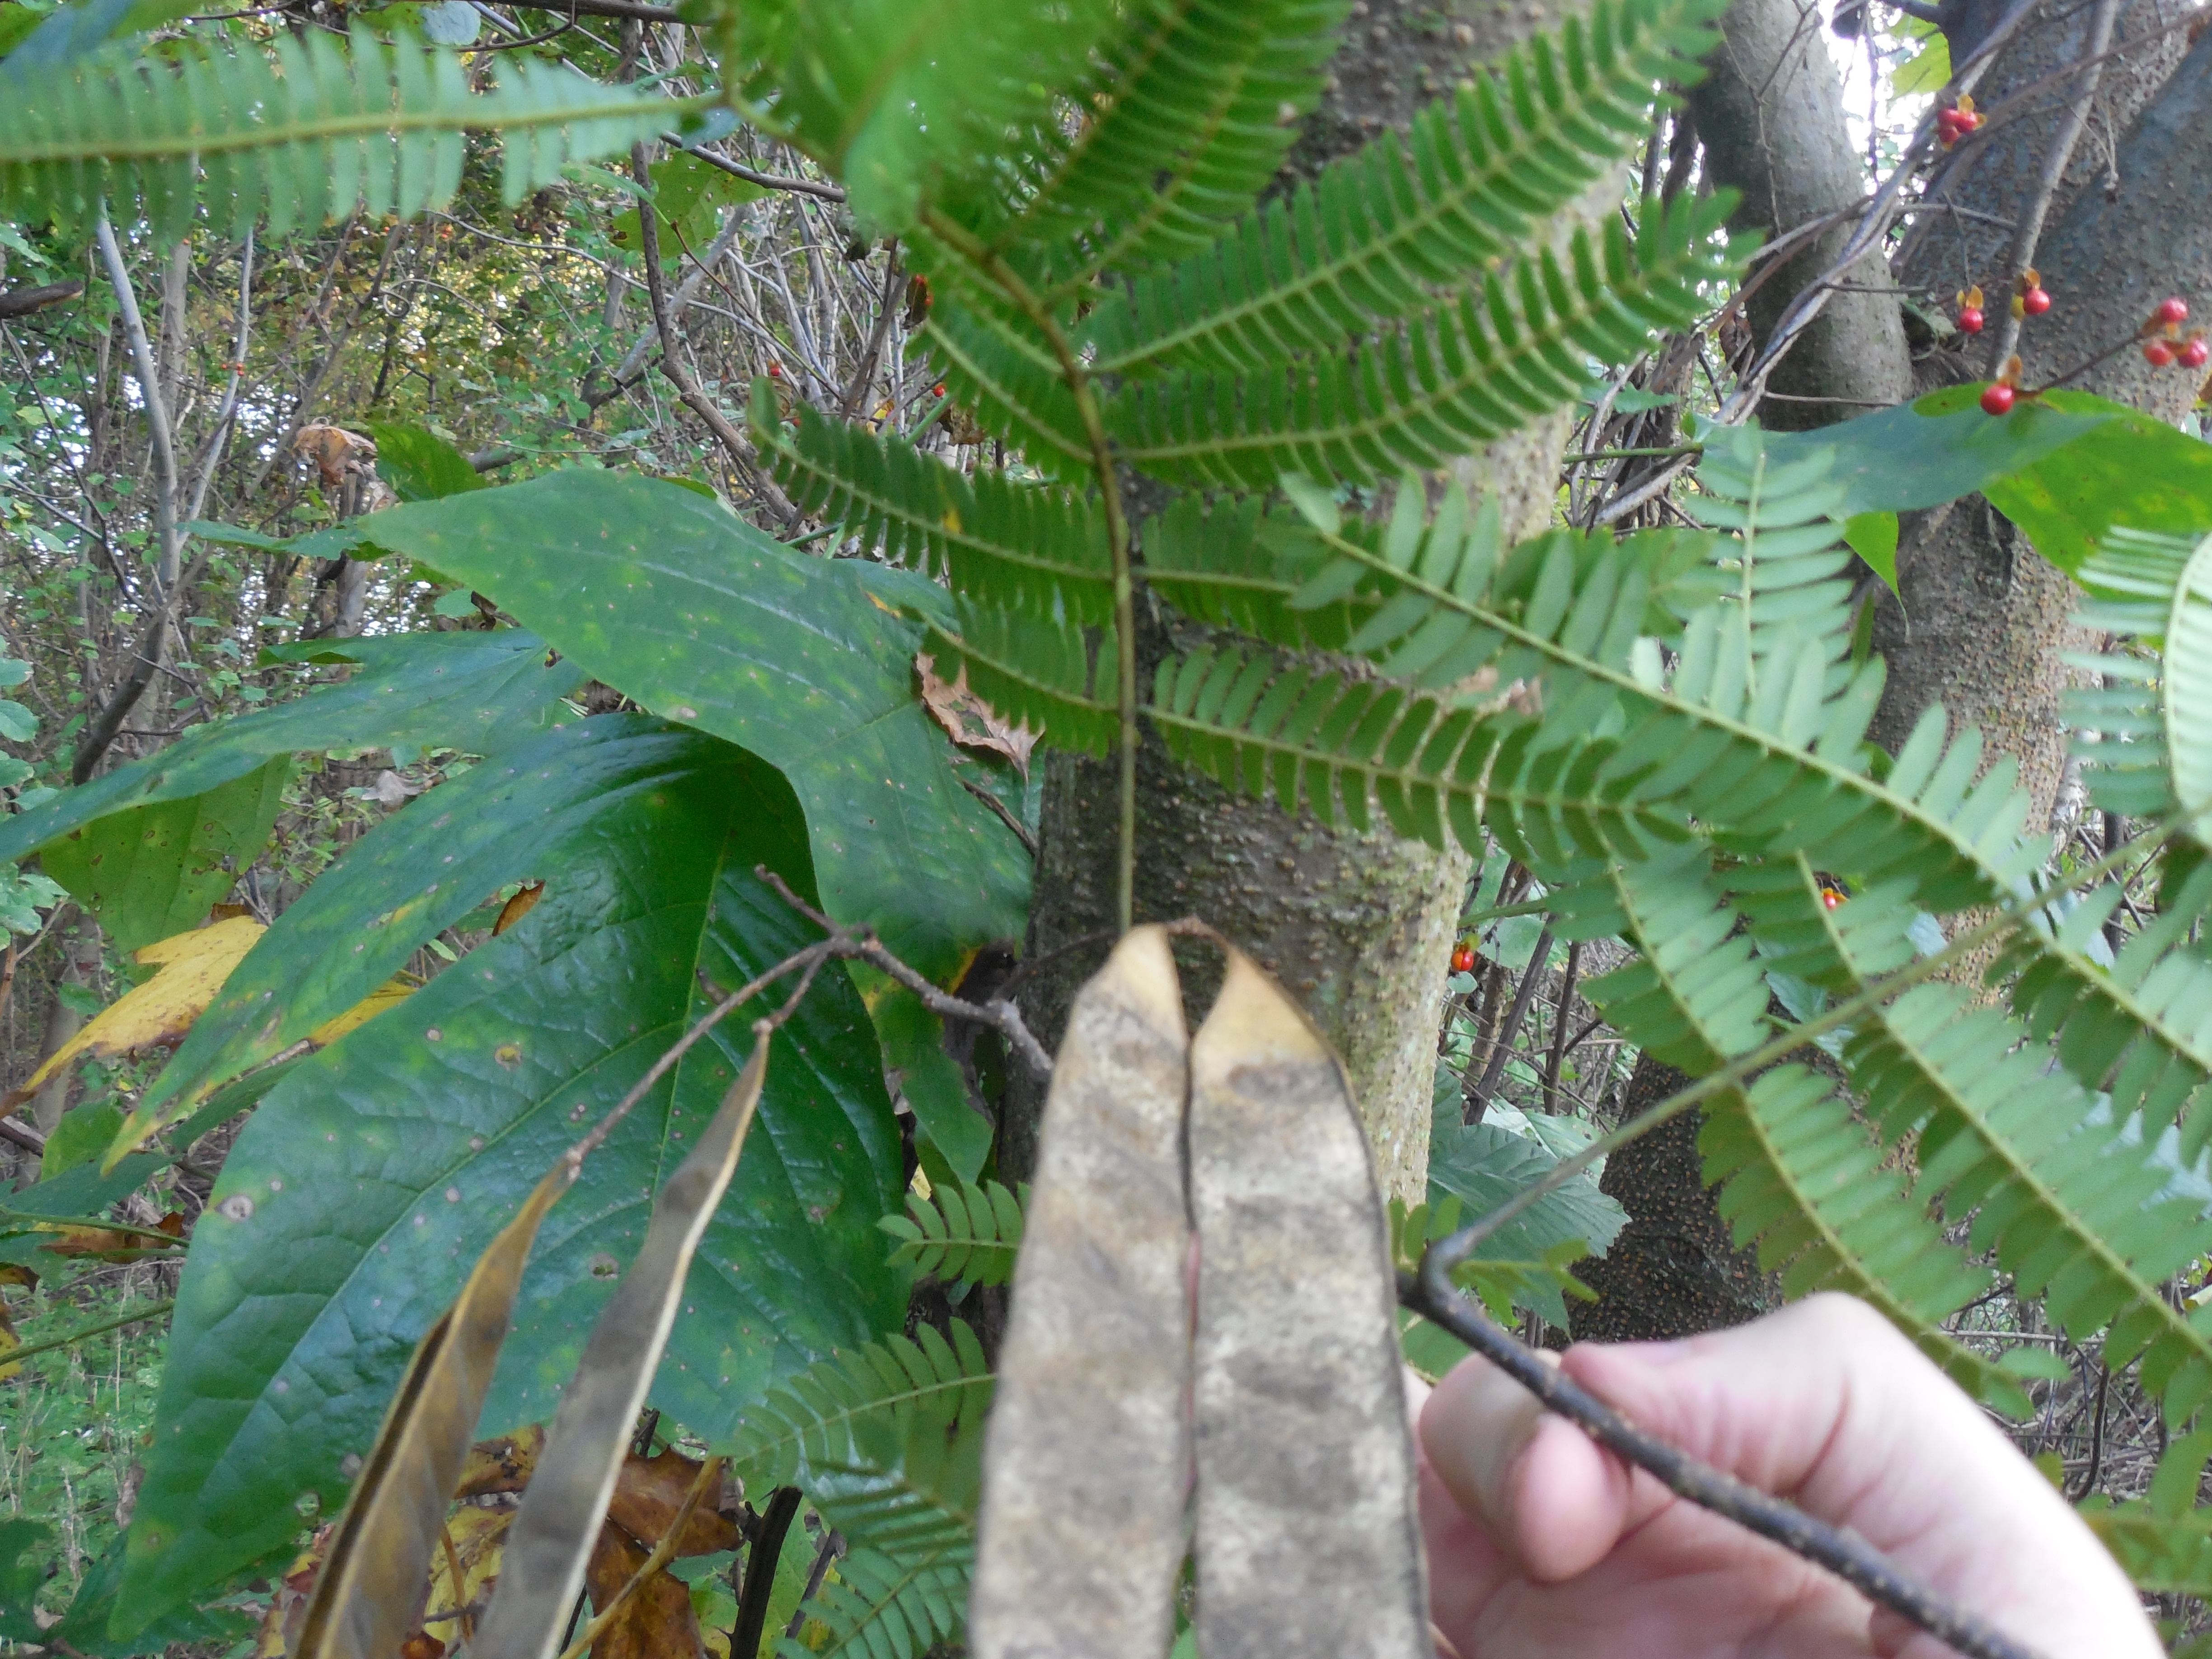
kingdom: Plantae
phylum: Tracheophyta
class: Magnoliopsida
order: Fabales
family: Fabaceae
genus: Albizia
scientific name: Albizia julibrissin
